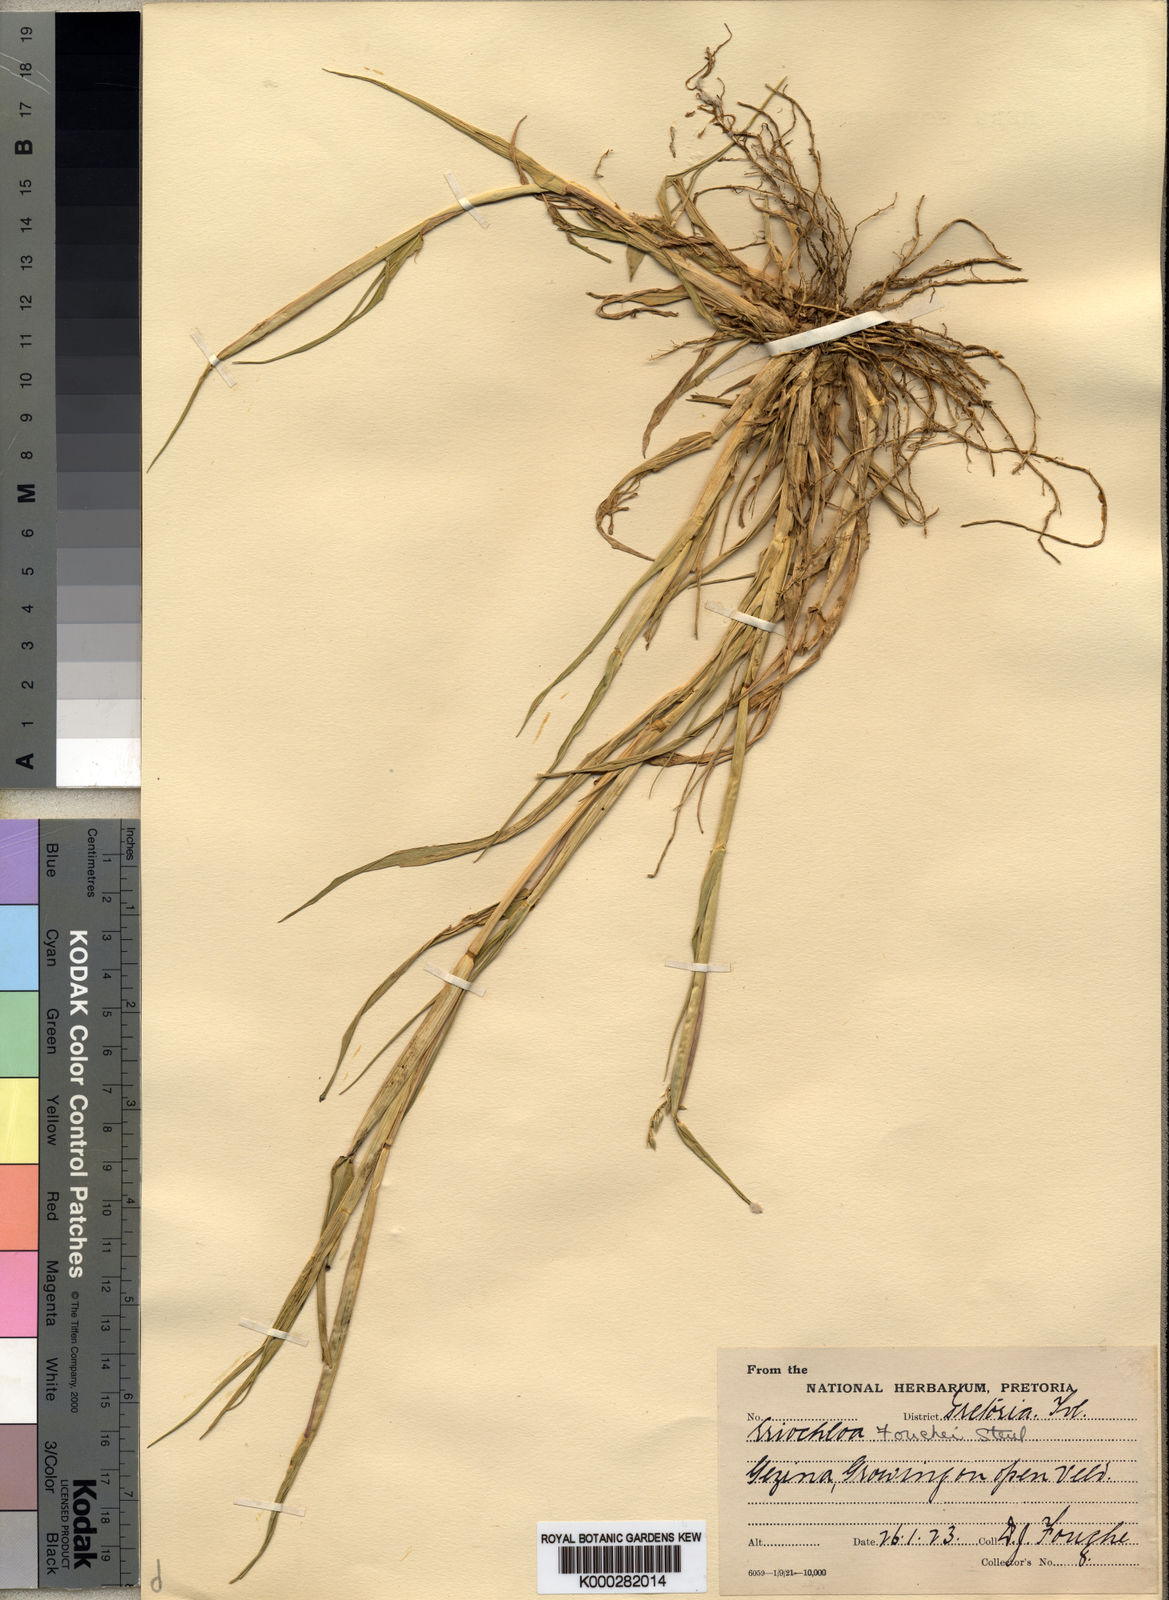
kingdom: Plantae
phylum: Tracheophyta
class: Liliopsida
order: Poales
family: Poaceae
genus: Eriochloa
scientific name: Eriochloa barbatus
